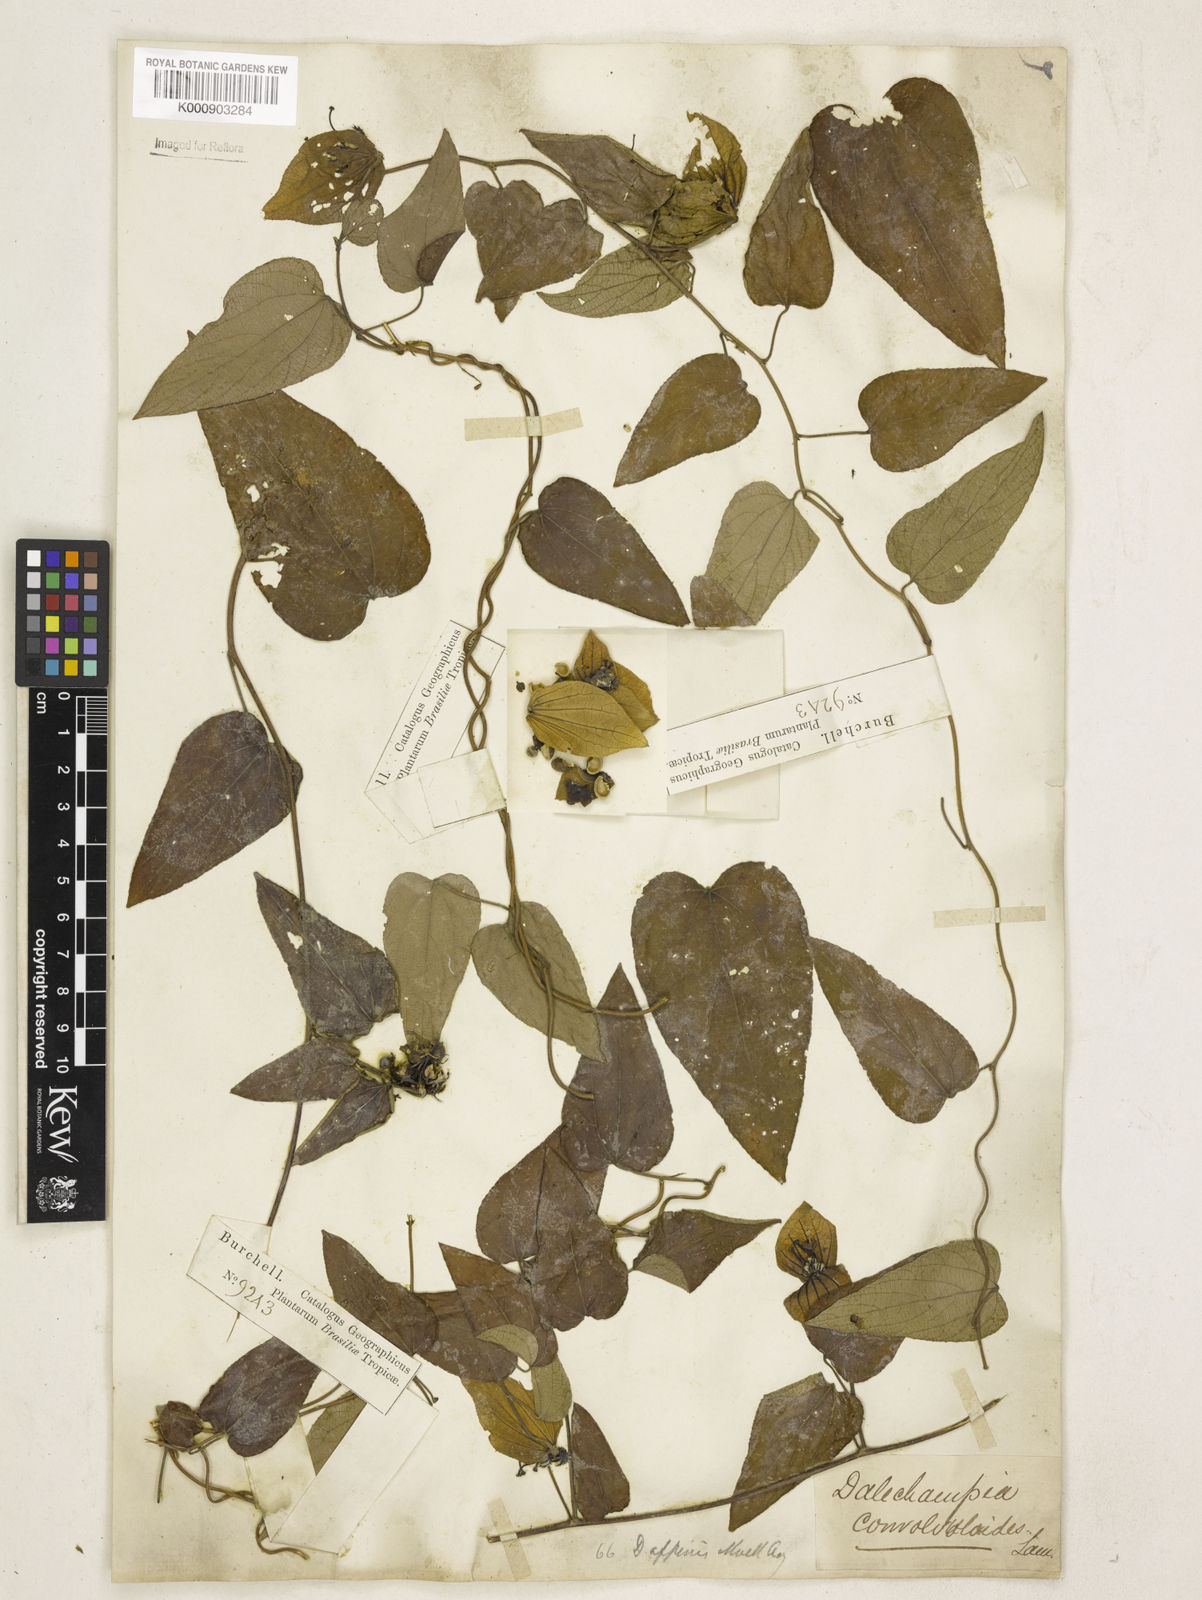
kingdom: Plantae
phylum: Tracheophyta
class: Magnoliopsida
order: Malpighiales
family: Euphorbiaceae
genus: Dalechampia
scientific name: Dalechampia
